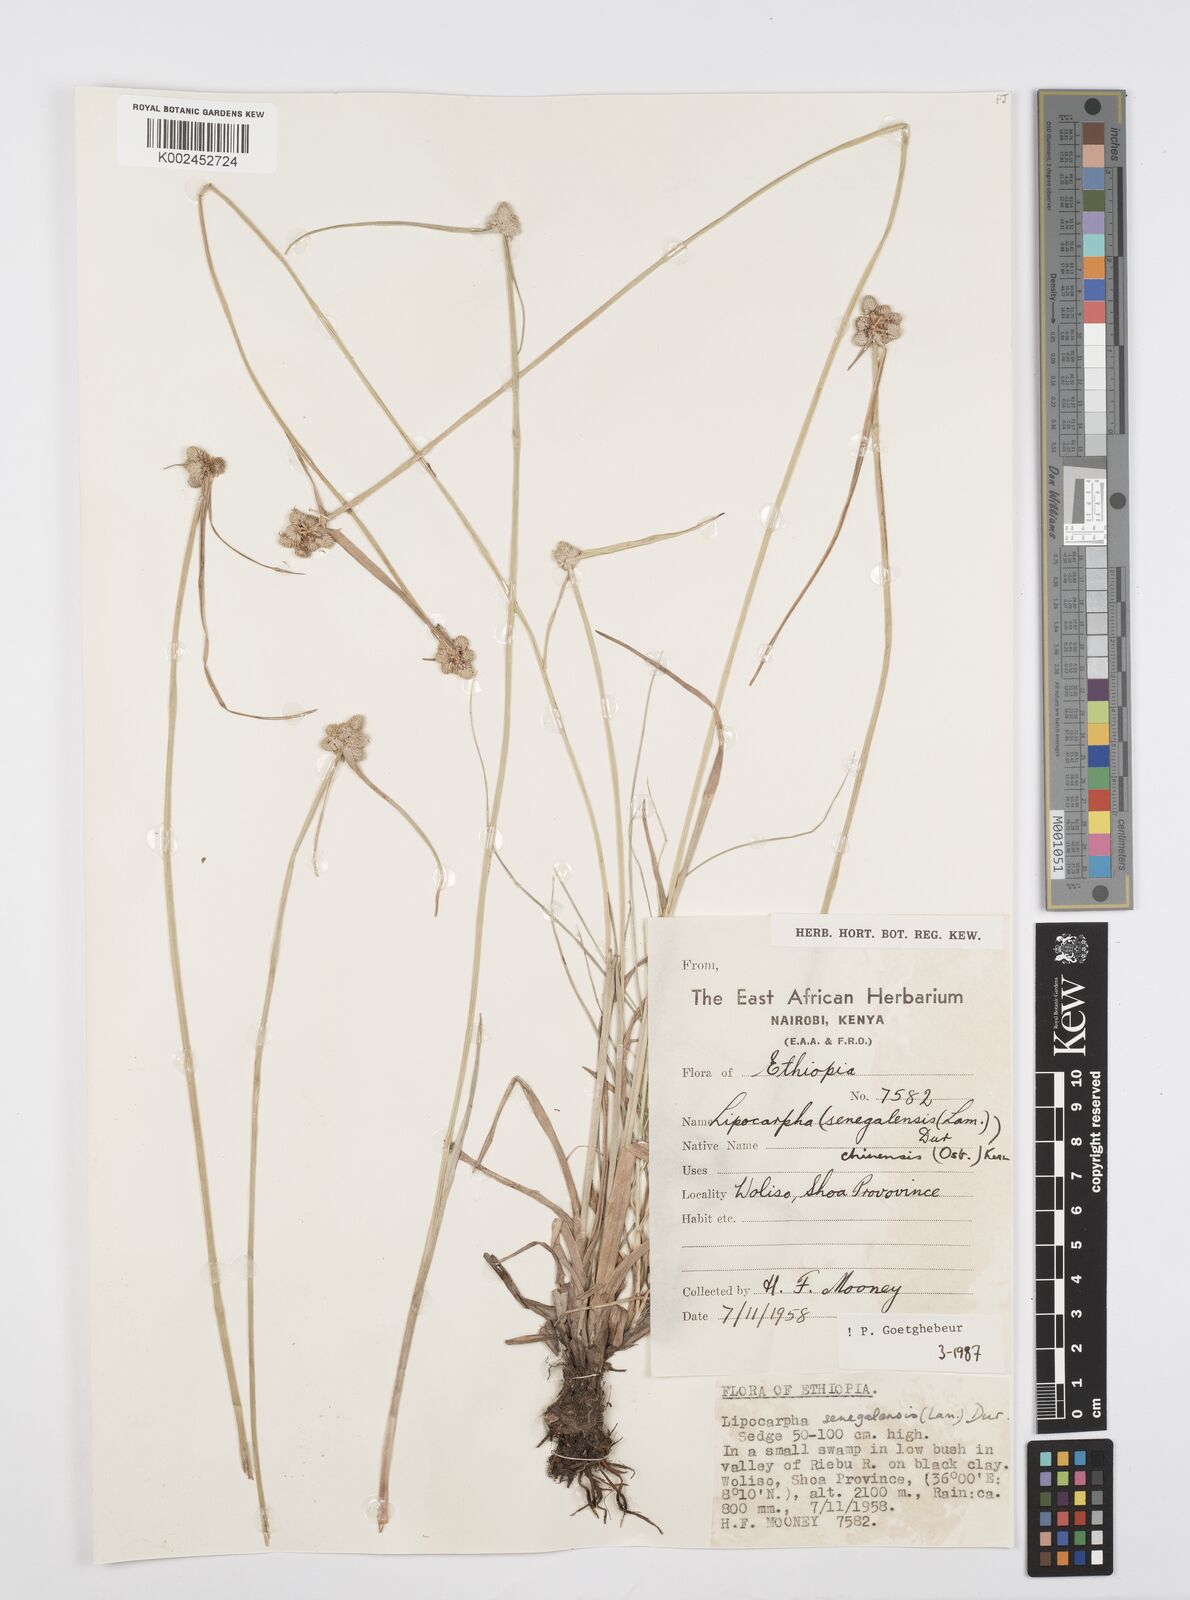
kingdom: Plantae
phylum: Tracheophyta
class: Liliopsida
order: Poales
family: Cyperaceae
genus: Cyperus
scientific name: Cyperus albescens
